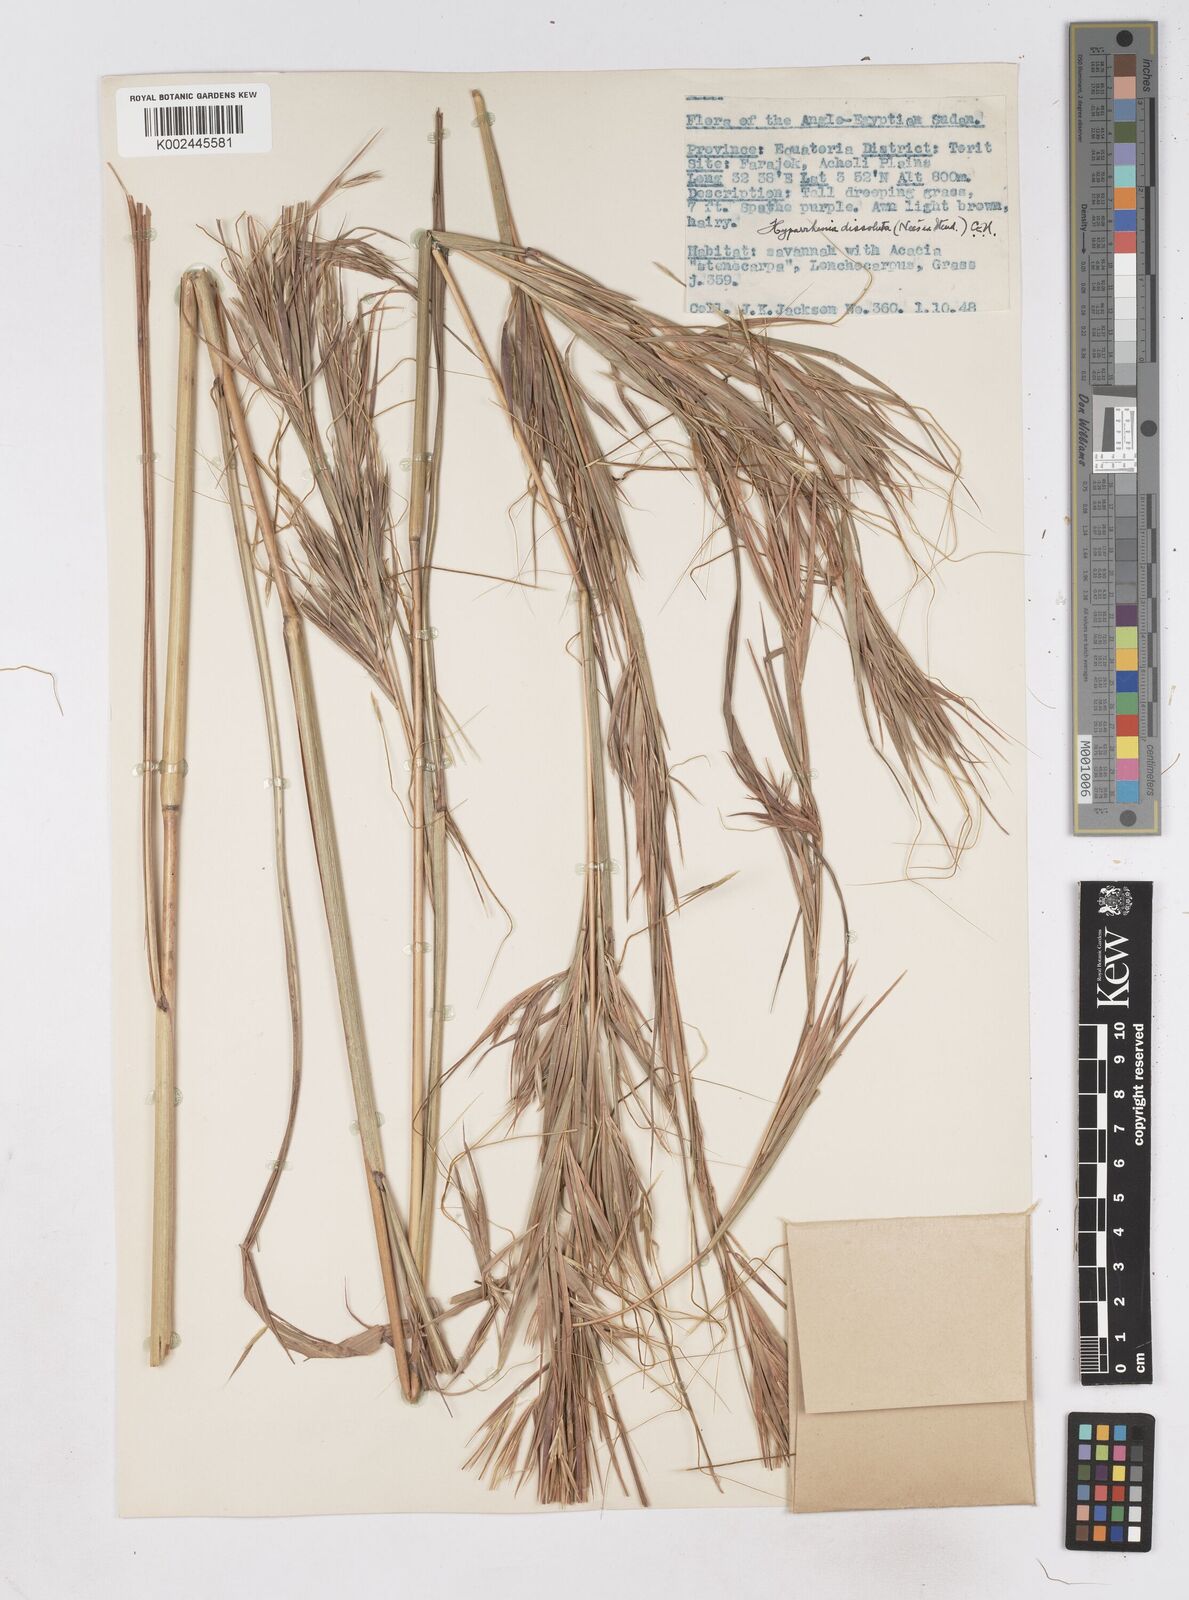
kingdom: Plantae
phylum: Tracheophyta
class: Liliopsida
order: Poales
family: Poaceae
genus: Hyperthelia
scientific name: Hyperthelia dissoluta
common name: Yellow thatching grass
